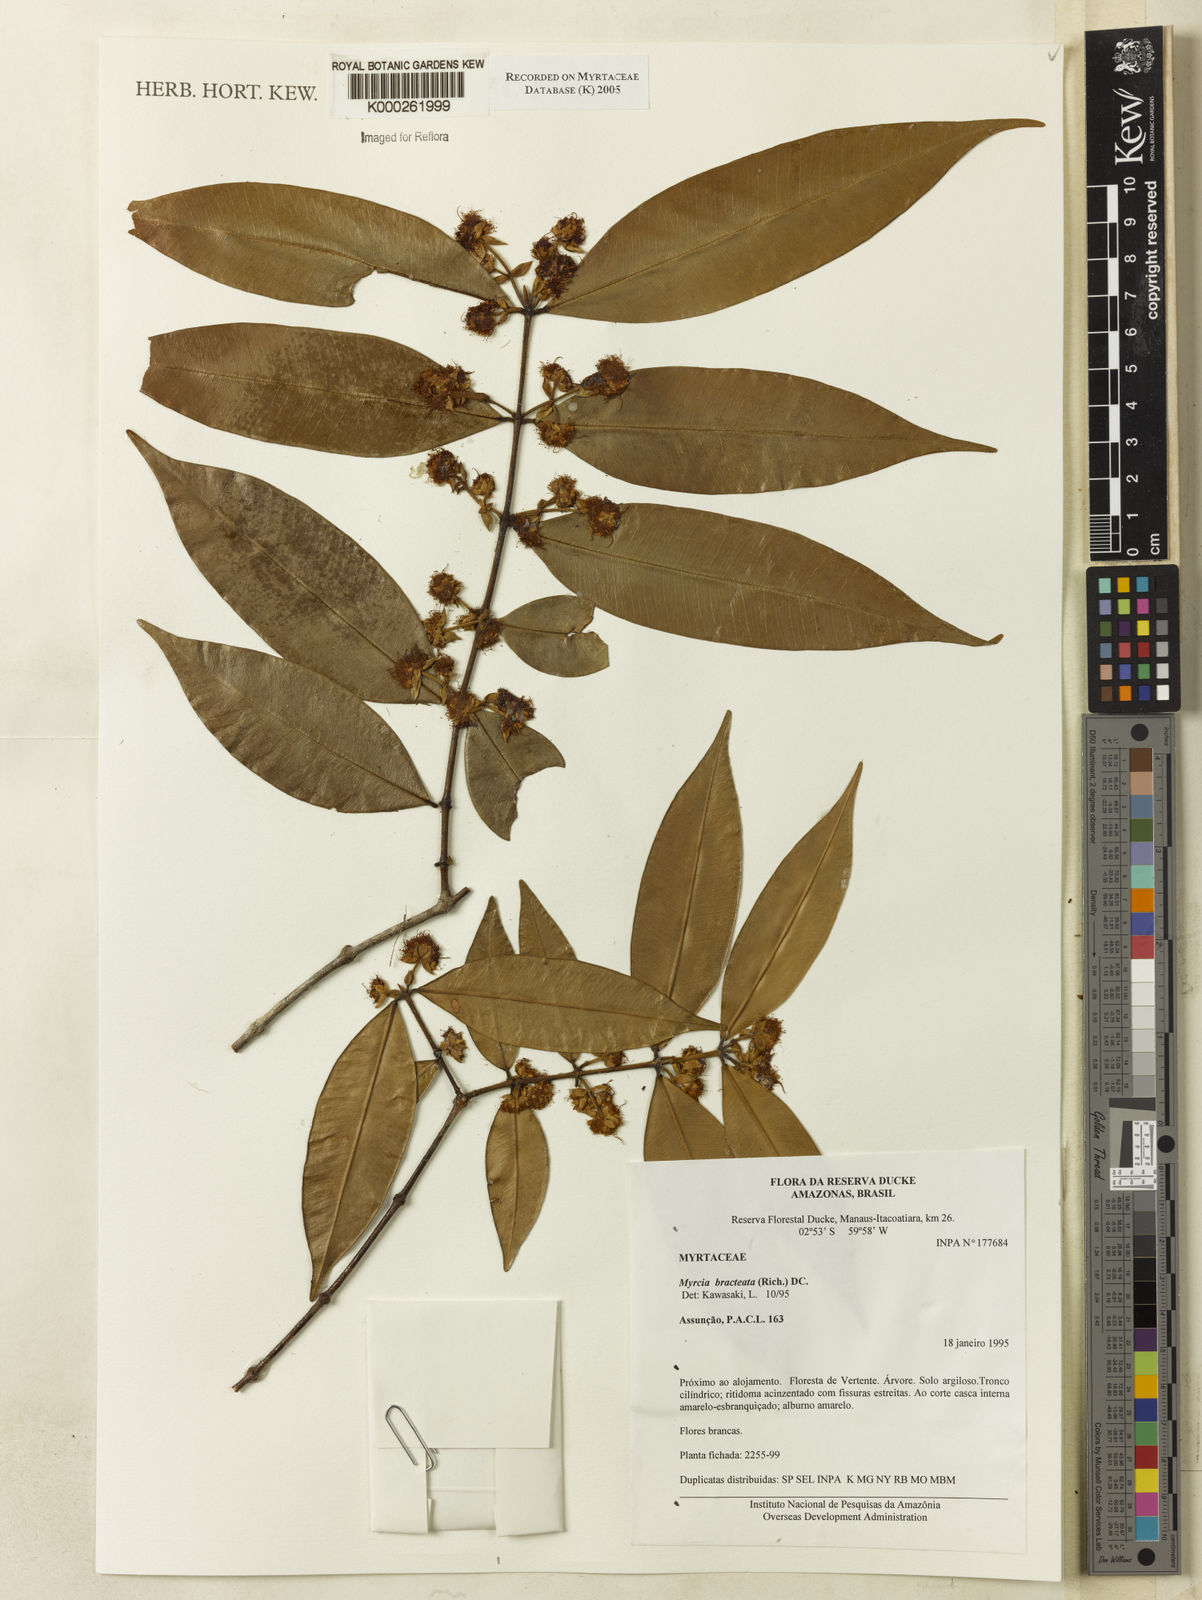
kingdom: Plantae
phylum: Tracheophyta
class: Magnoliopsida
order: Myrtales
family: Myrtaceae
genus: Myrcia
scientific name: Myrcia bracteata
